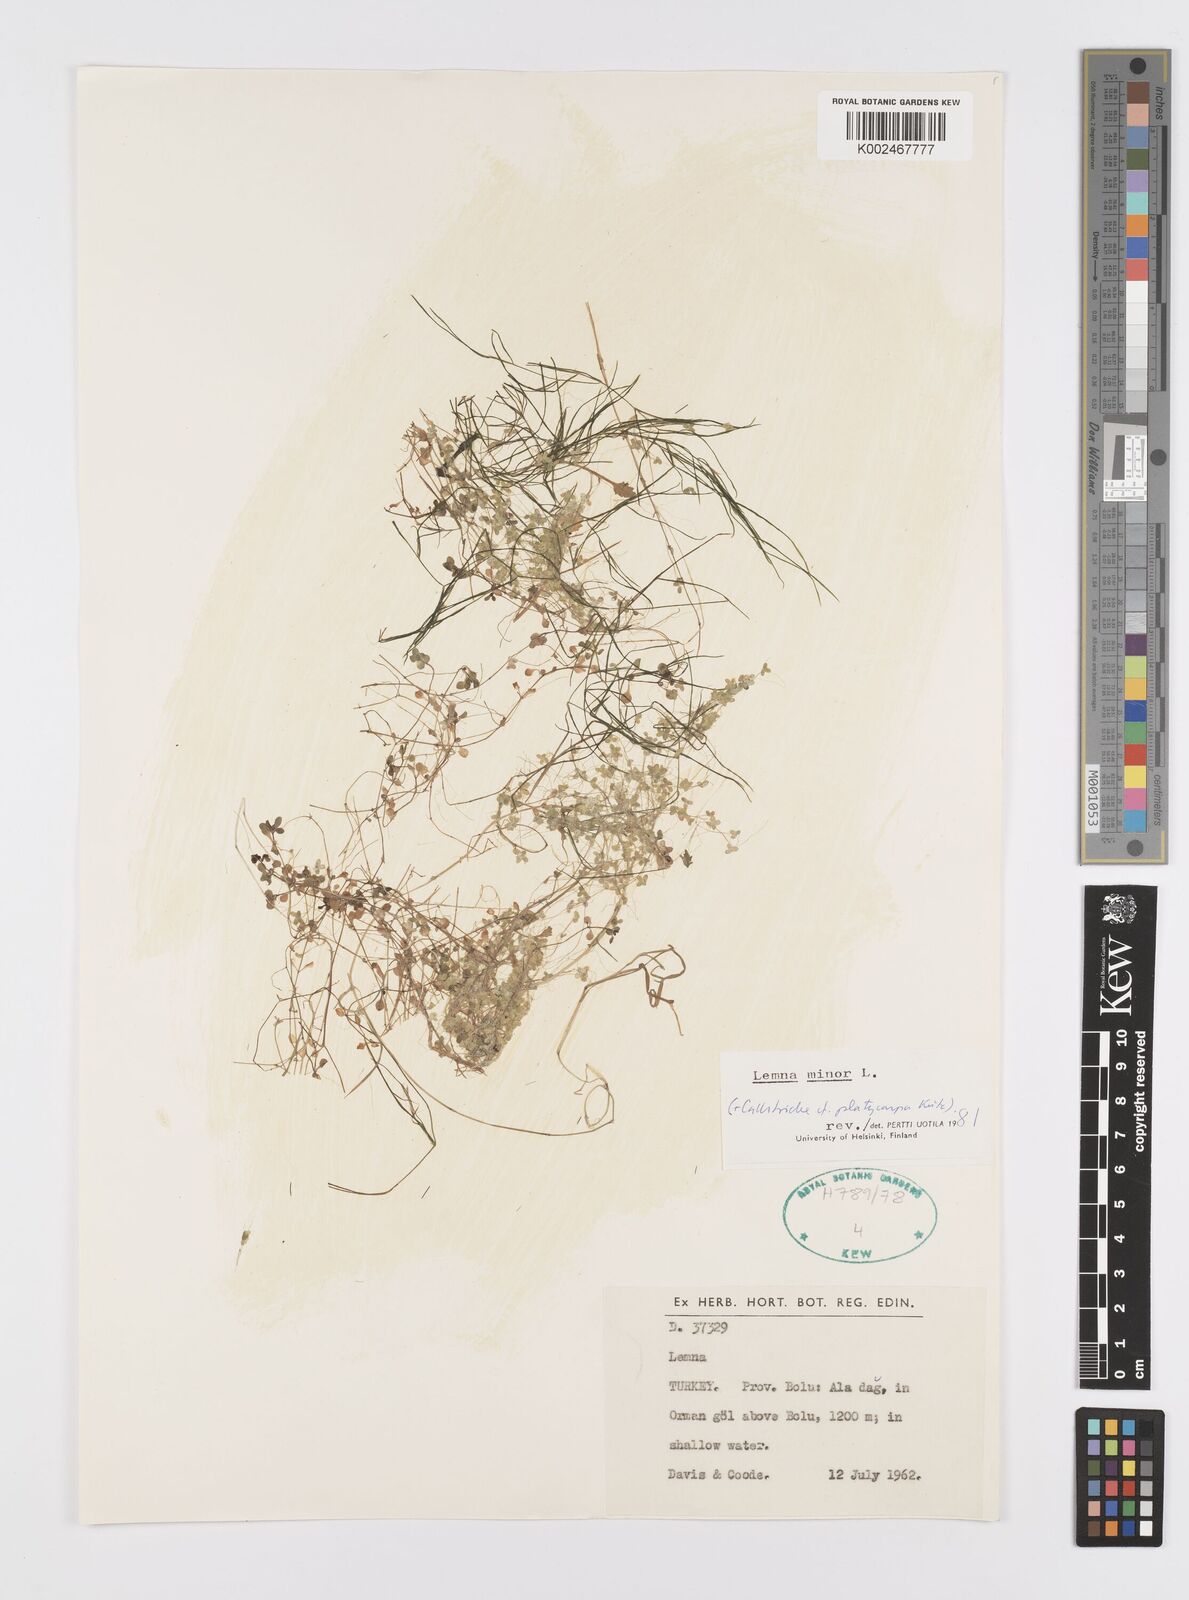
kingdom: Plantae
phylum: Tracheophyta
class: Liliopsida
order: Alismatales
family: Araceae
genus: Lemna
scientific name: Lemna minor
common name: Common duckweed
